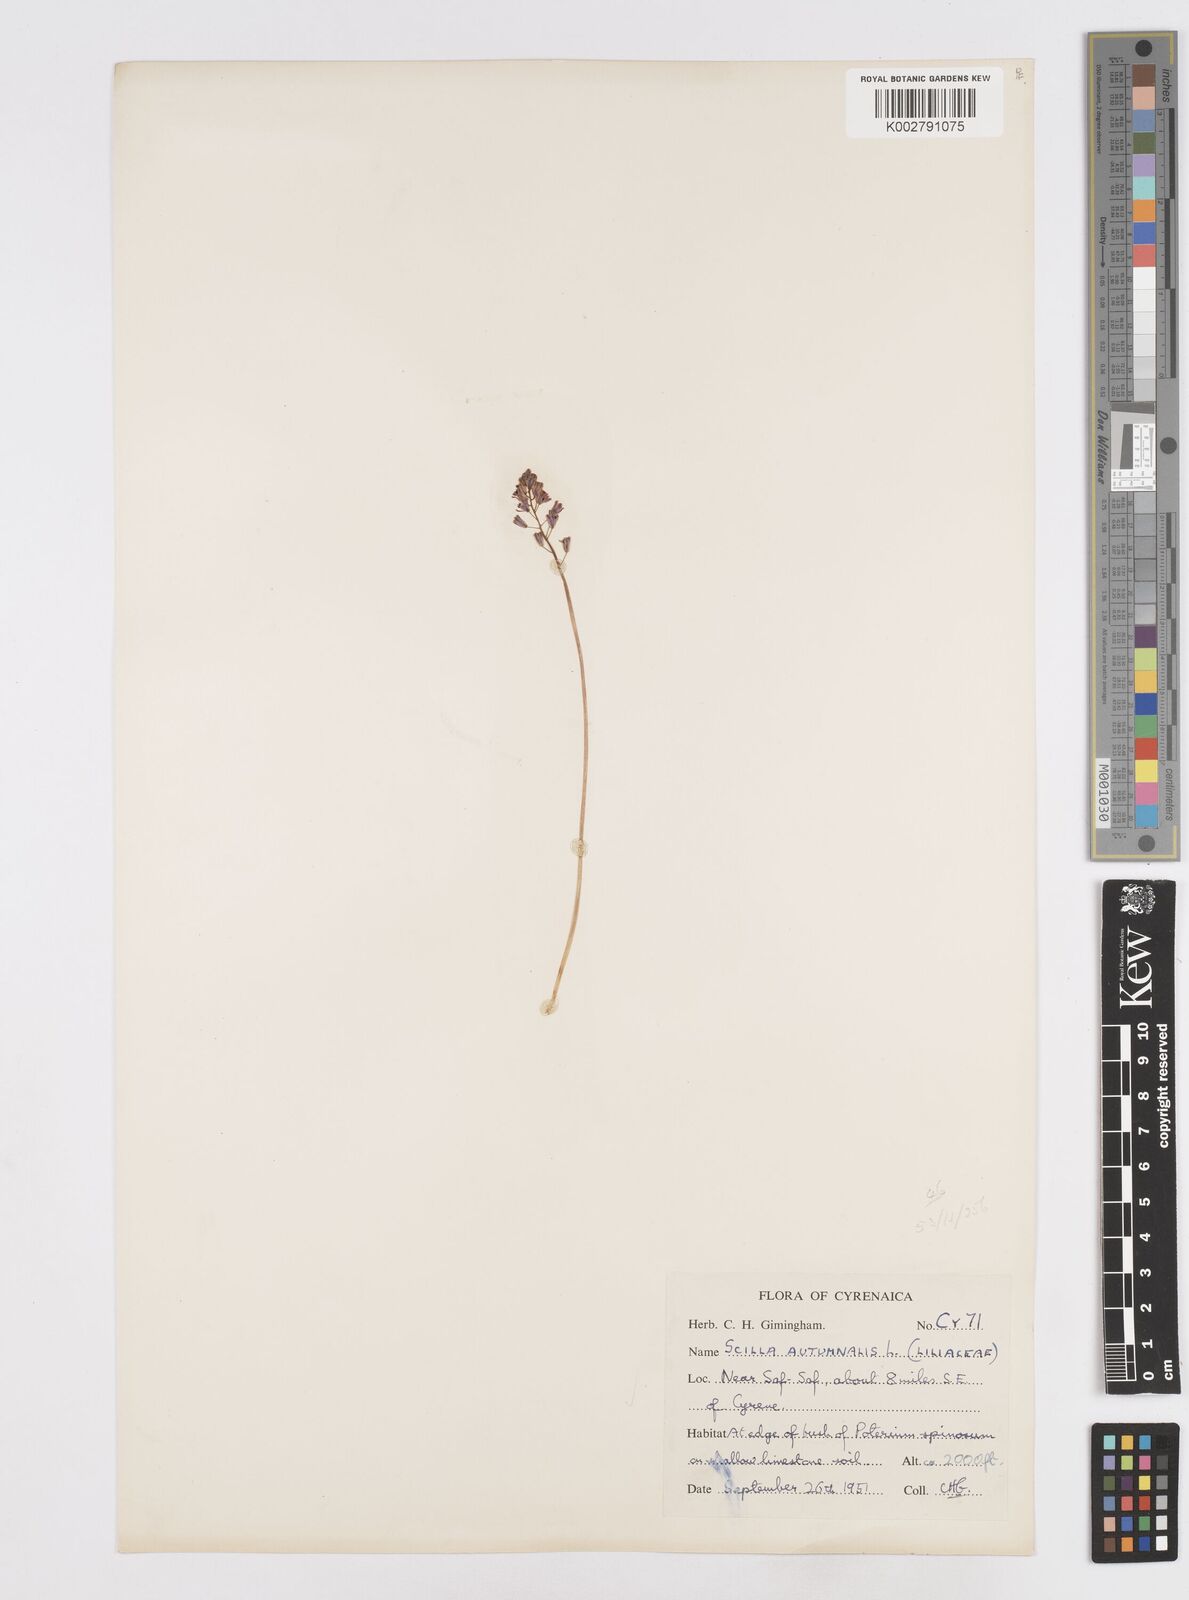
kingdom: Plantae
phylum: Tracheophyta
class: Liliopsida
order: Asparagales
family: Asparagaceae
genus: Prospero
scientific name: Prospero autumnale
